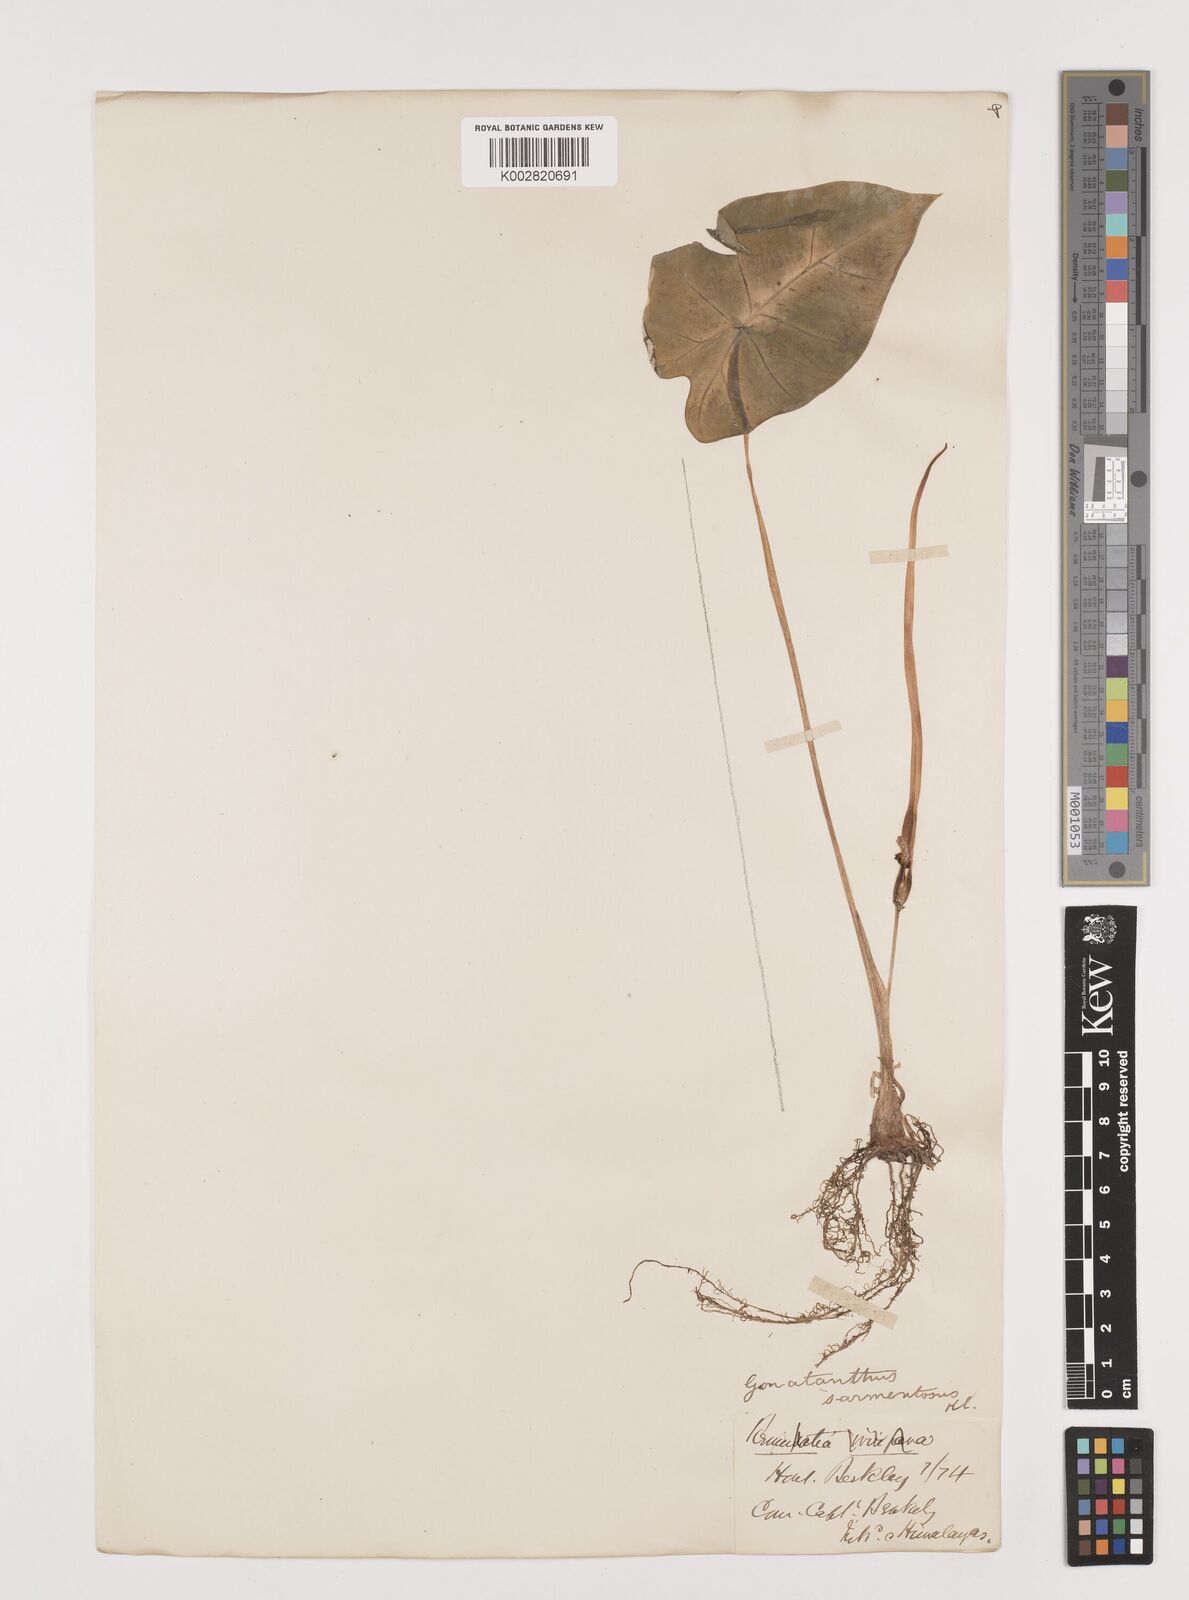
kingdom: Plantae
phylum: Tracheophyta
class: Liliopsida
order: Alismatales
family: Araceae
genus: Remusatia
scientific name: Remusatia pumila
